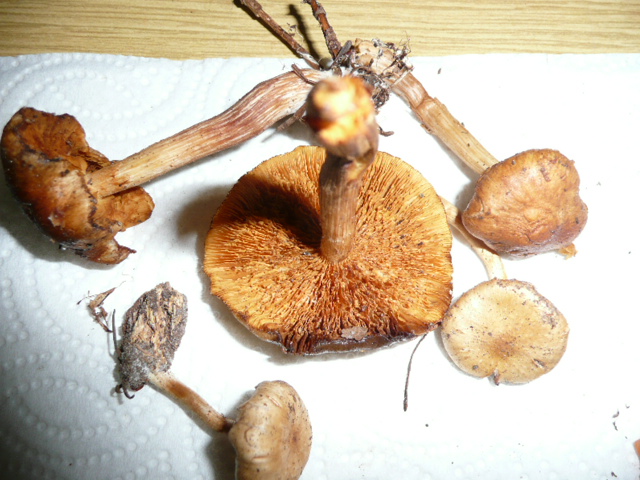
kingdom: Fungi
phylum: Basidiomycota
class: Agaricomycetes
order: Agaricales
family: Hymenogastraceae
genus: Gymnopilus
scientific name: Gymnopilus penetrans
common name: plettet flammehat
